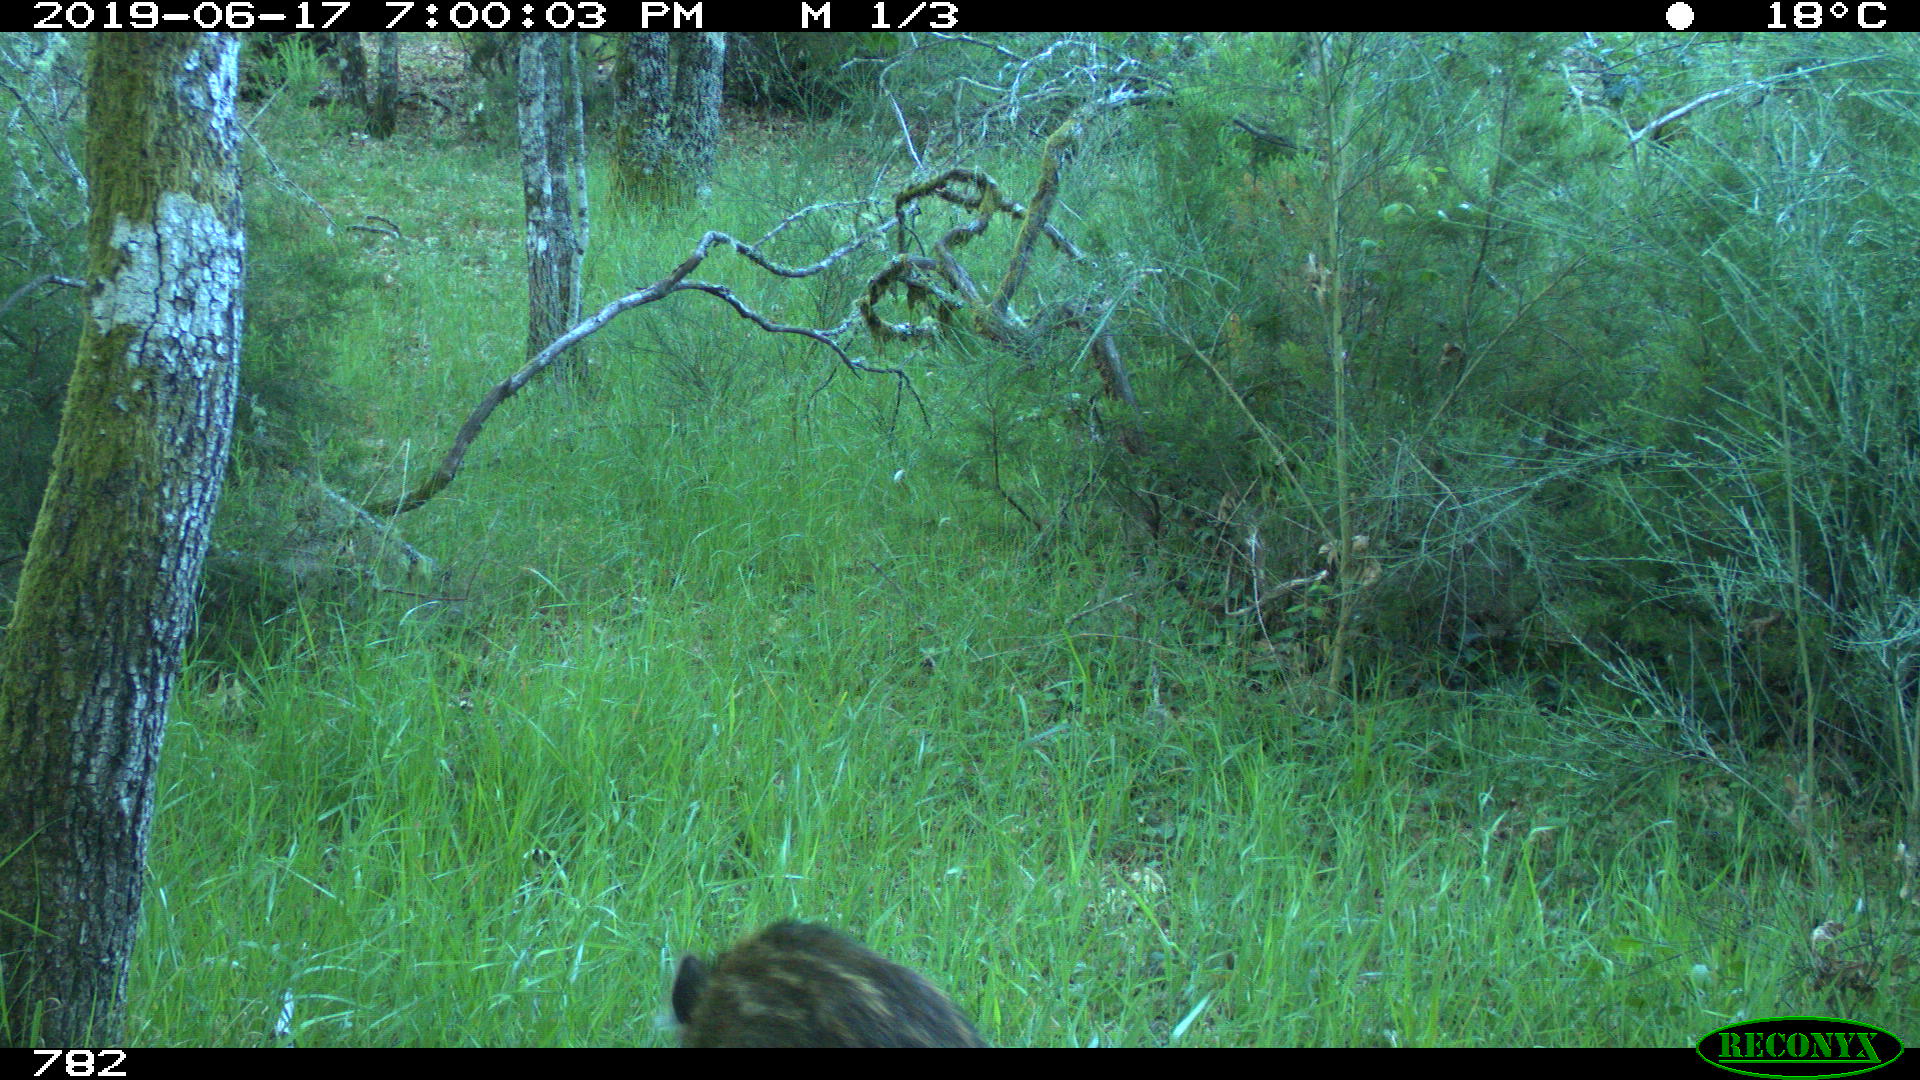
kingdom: Animalia
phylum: Chordata
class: Mammalia
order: Artiodactyla
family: Suidae
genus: Sus
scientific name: Sus scrofa
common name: Wild boar
